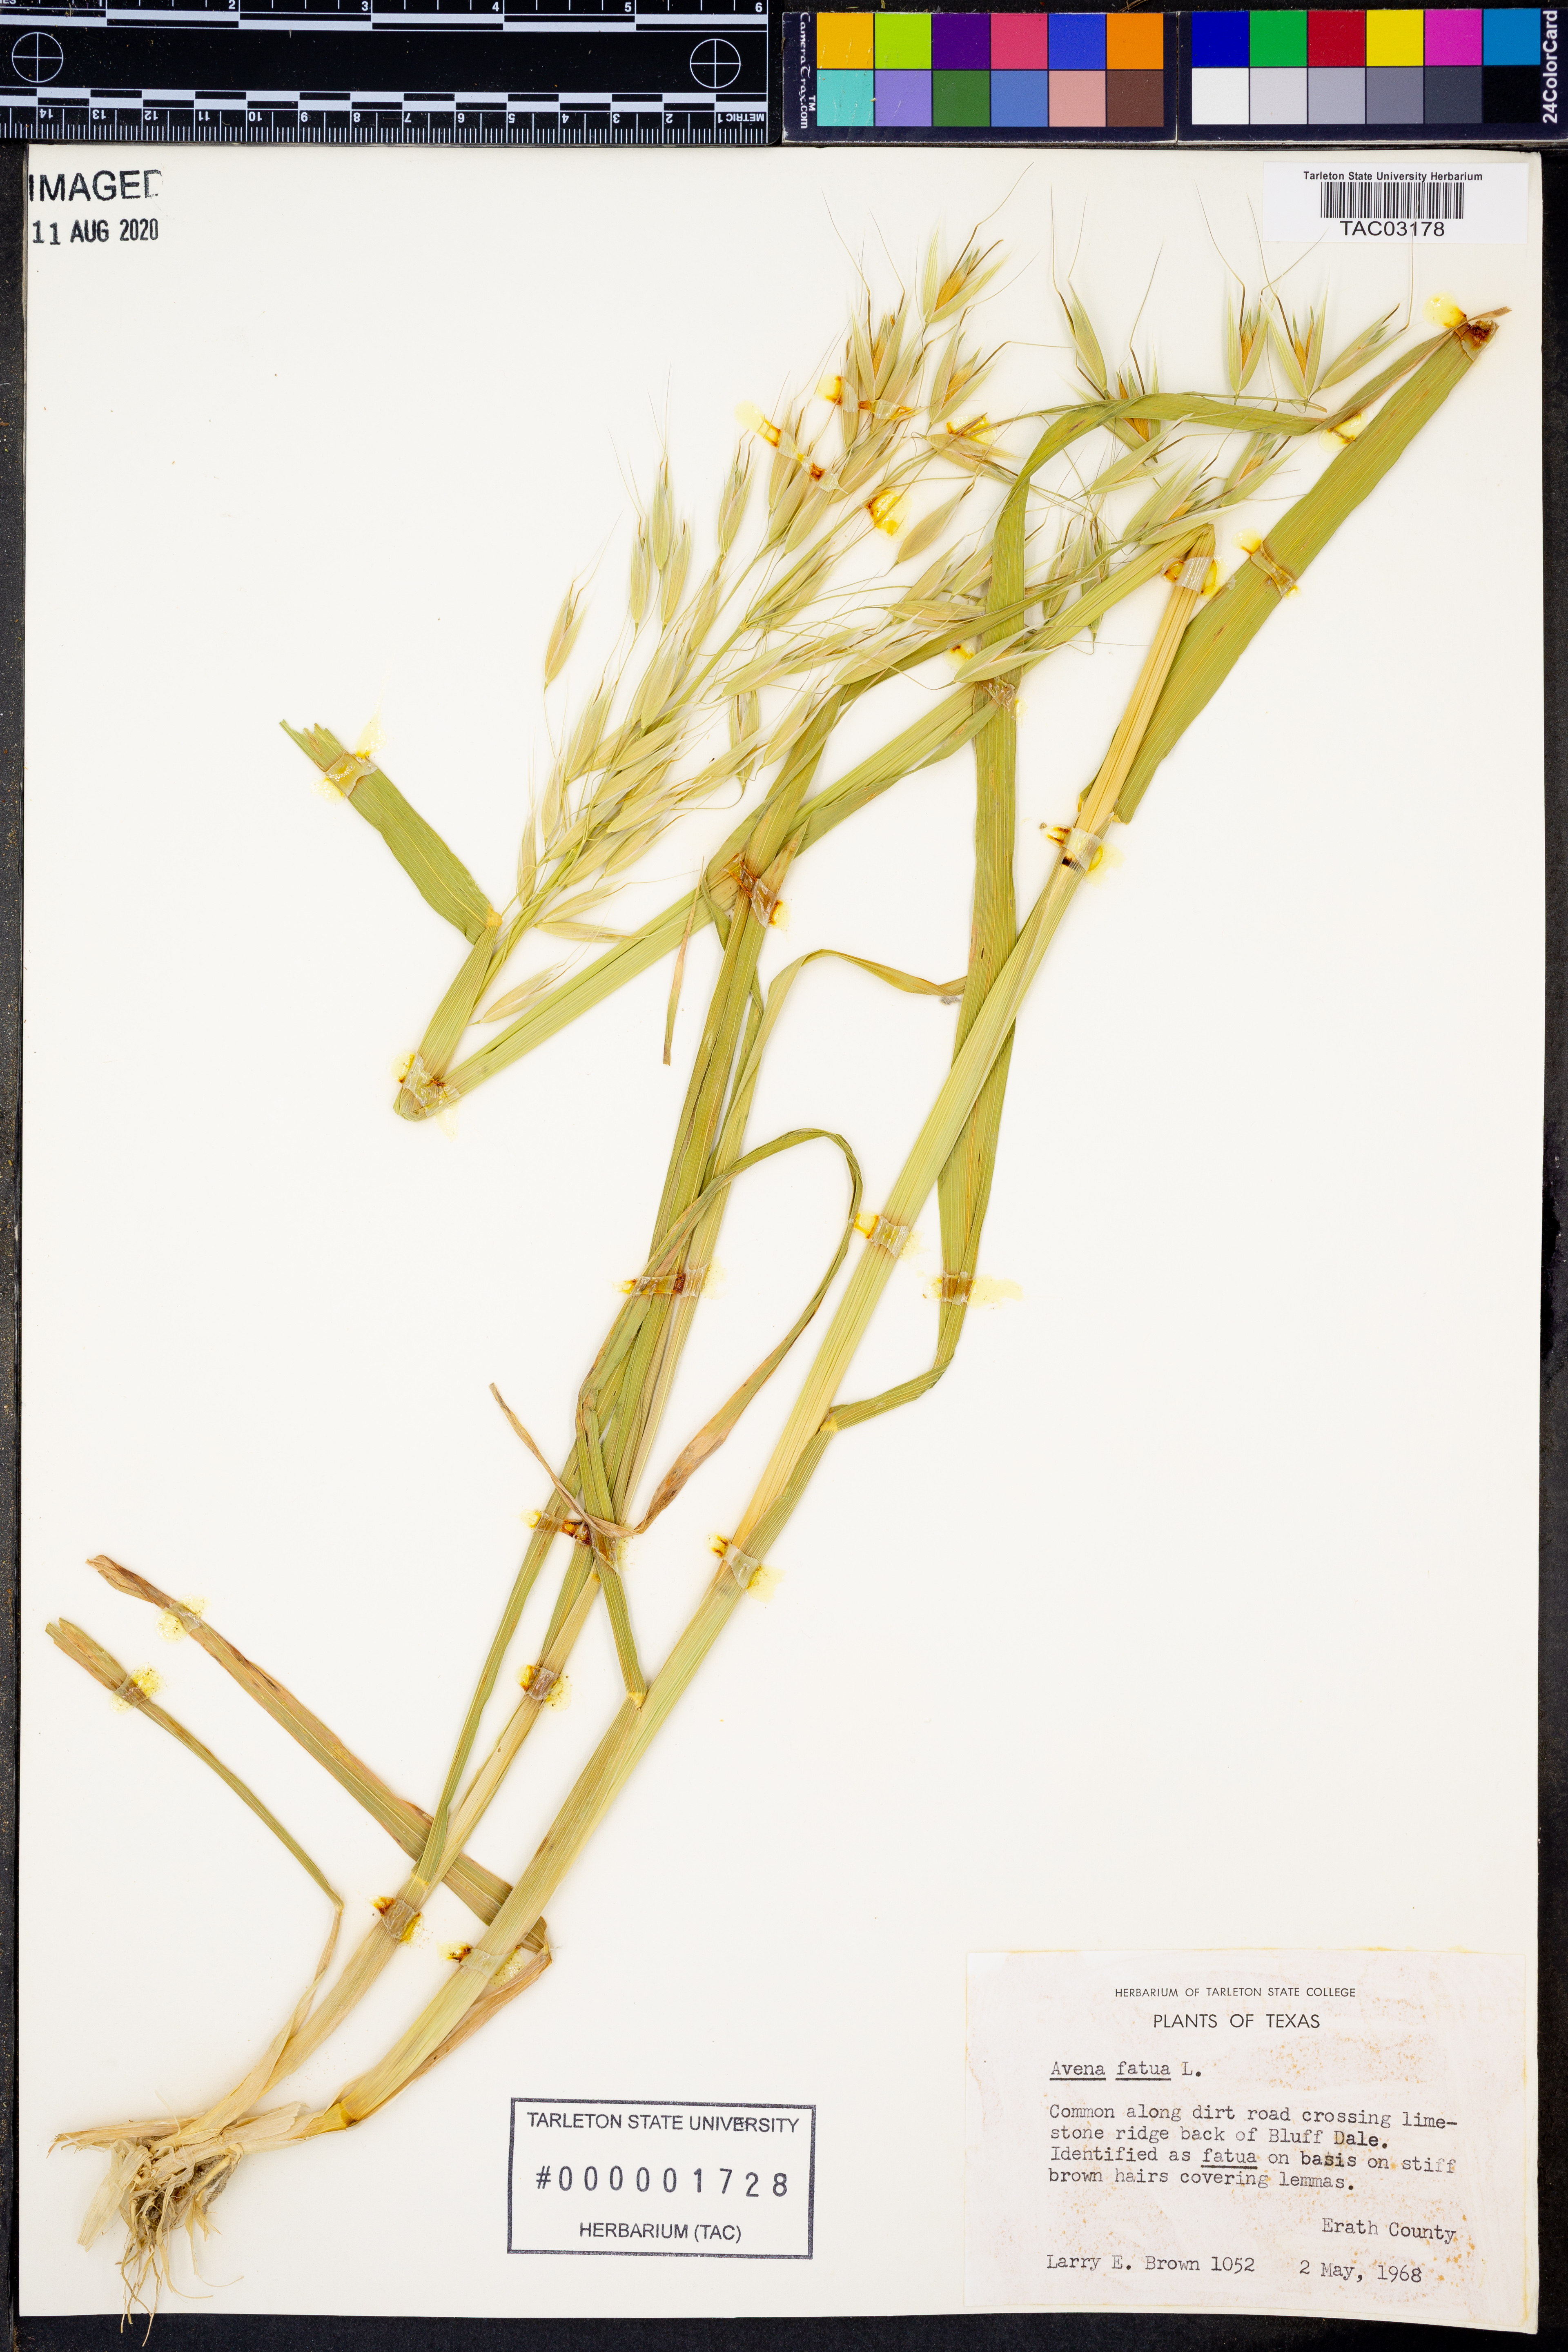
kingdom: Plantae
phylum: Tracheophyta
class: Liliopsida
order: Poales
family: Poaceae
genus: Avena
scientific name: Avena fatua
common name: Wild oat
